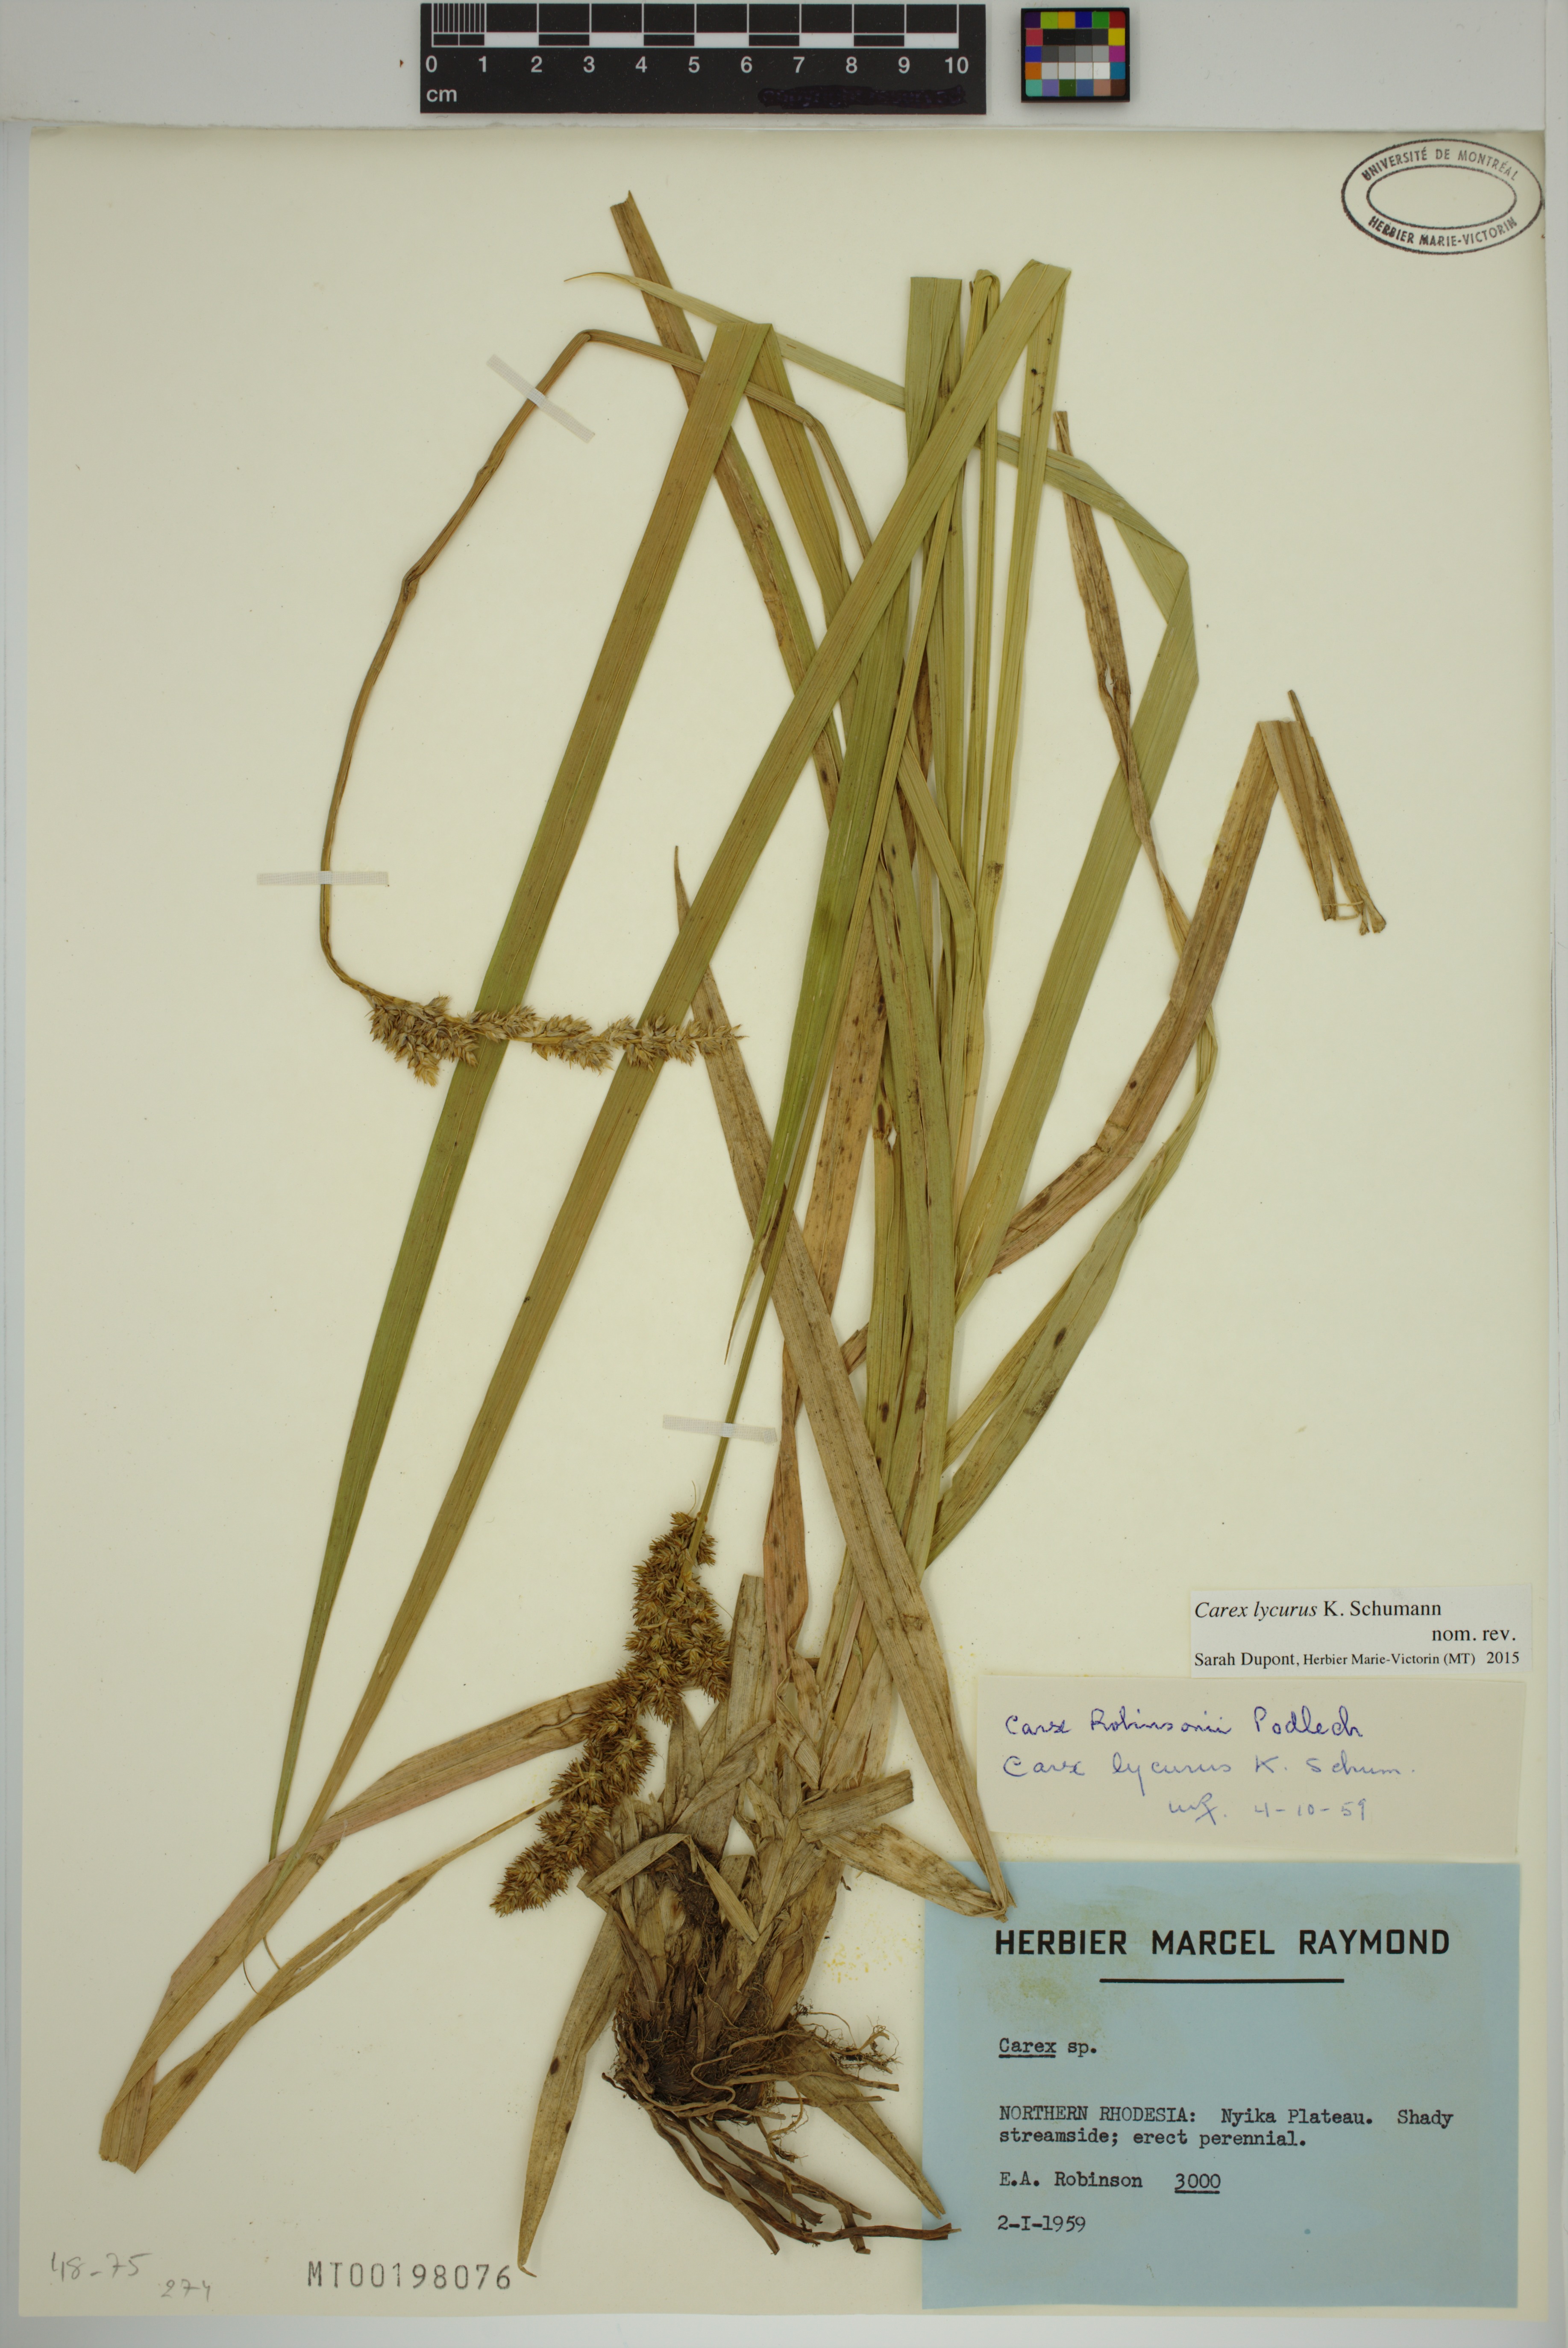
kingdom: Plantae
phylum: Tracheophyta
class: Liliopsida
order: Poales
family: Cyperaceae
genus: Carex
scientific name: Carex lycurus
